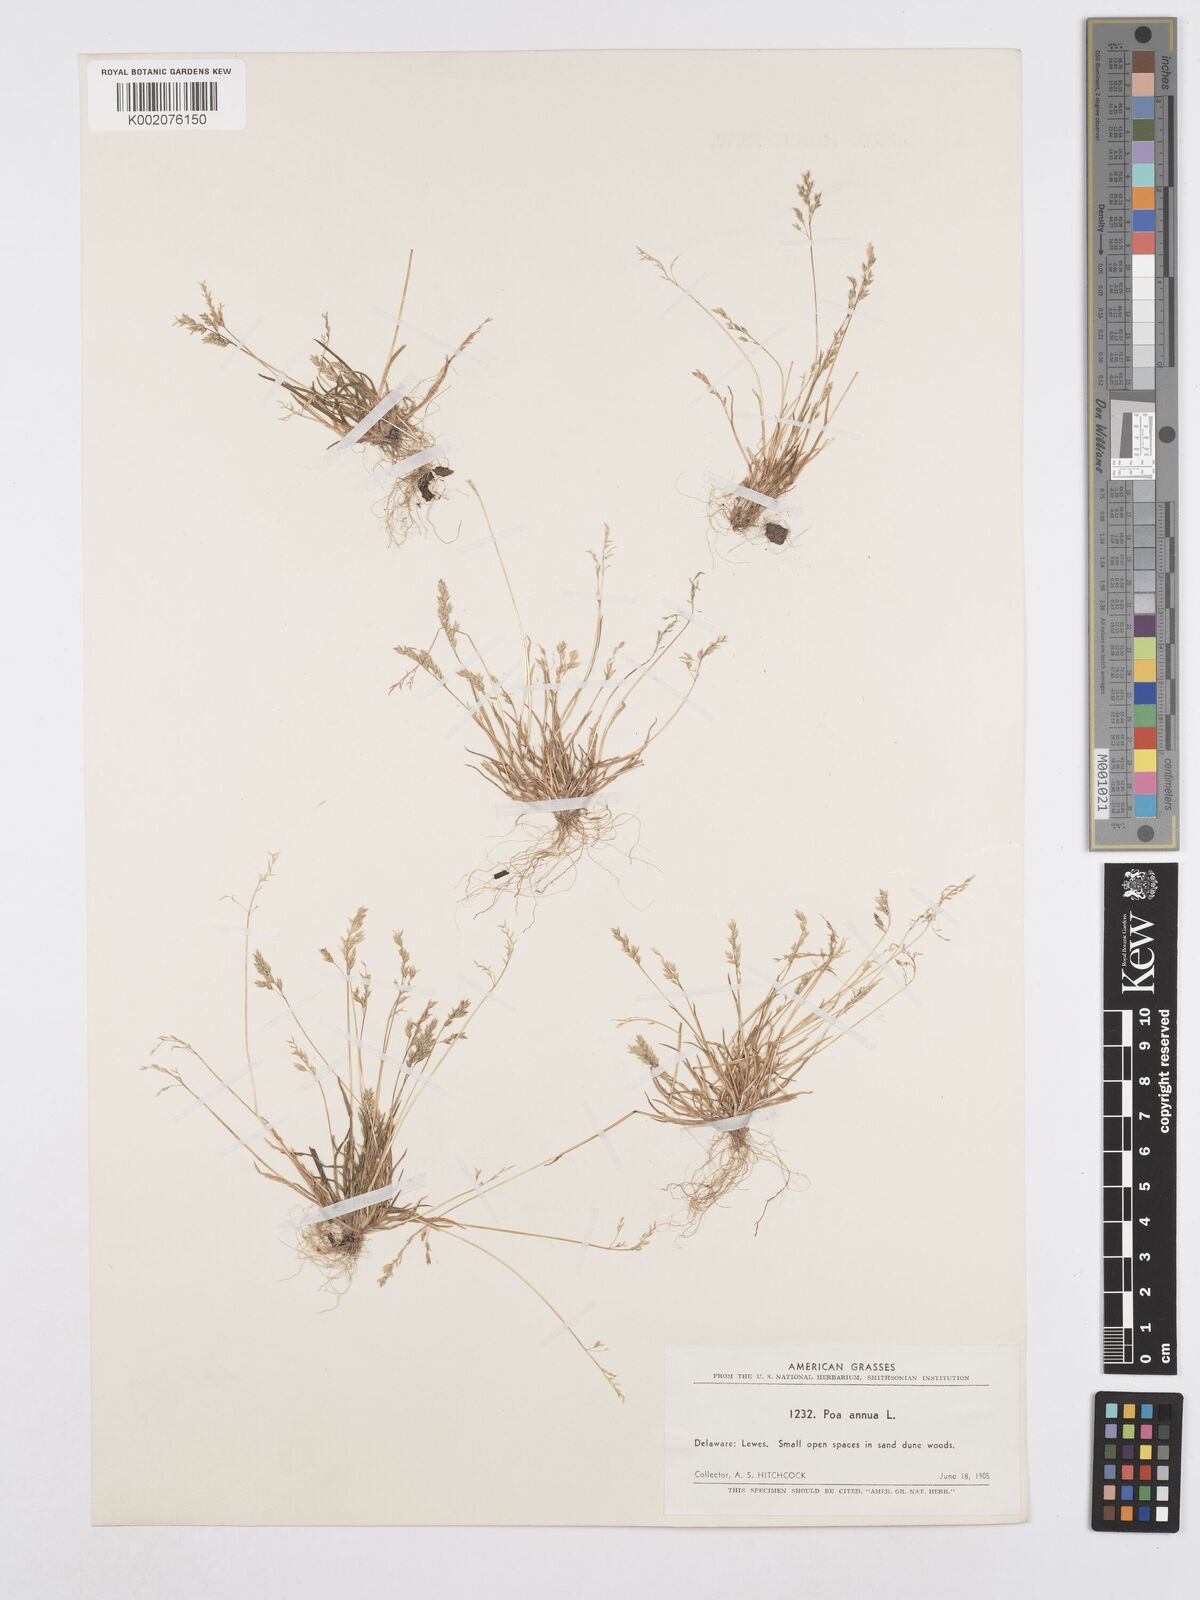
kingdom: Plantae
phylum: Tracheophyta
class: Liliopsida
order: Poales
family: Poaceae
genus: Poa
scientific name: Poa annua
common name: Annual bluegrass
